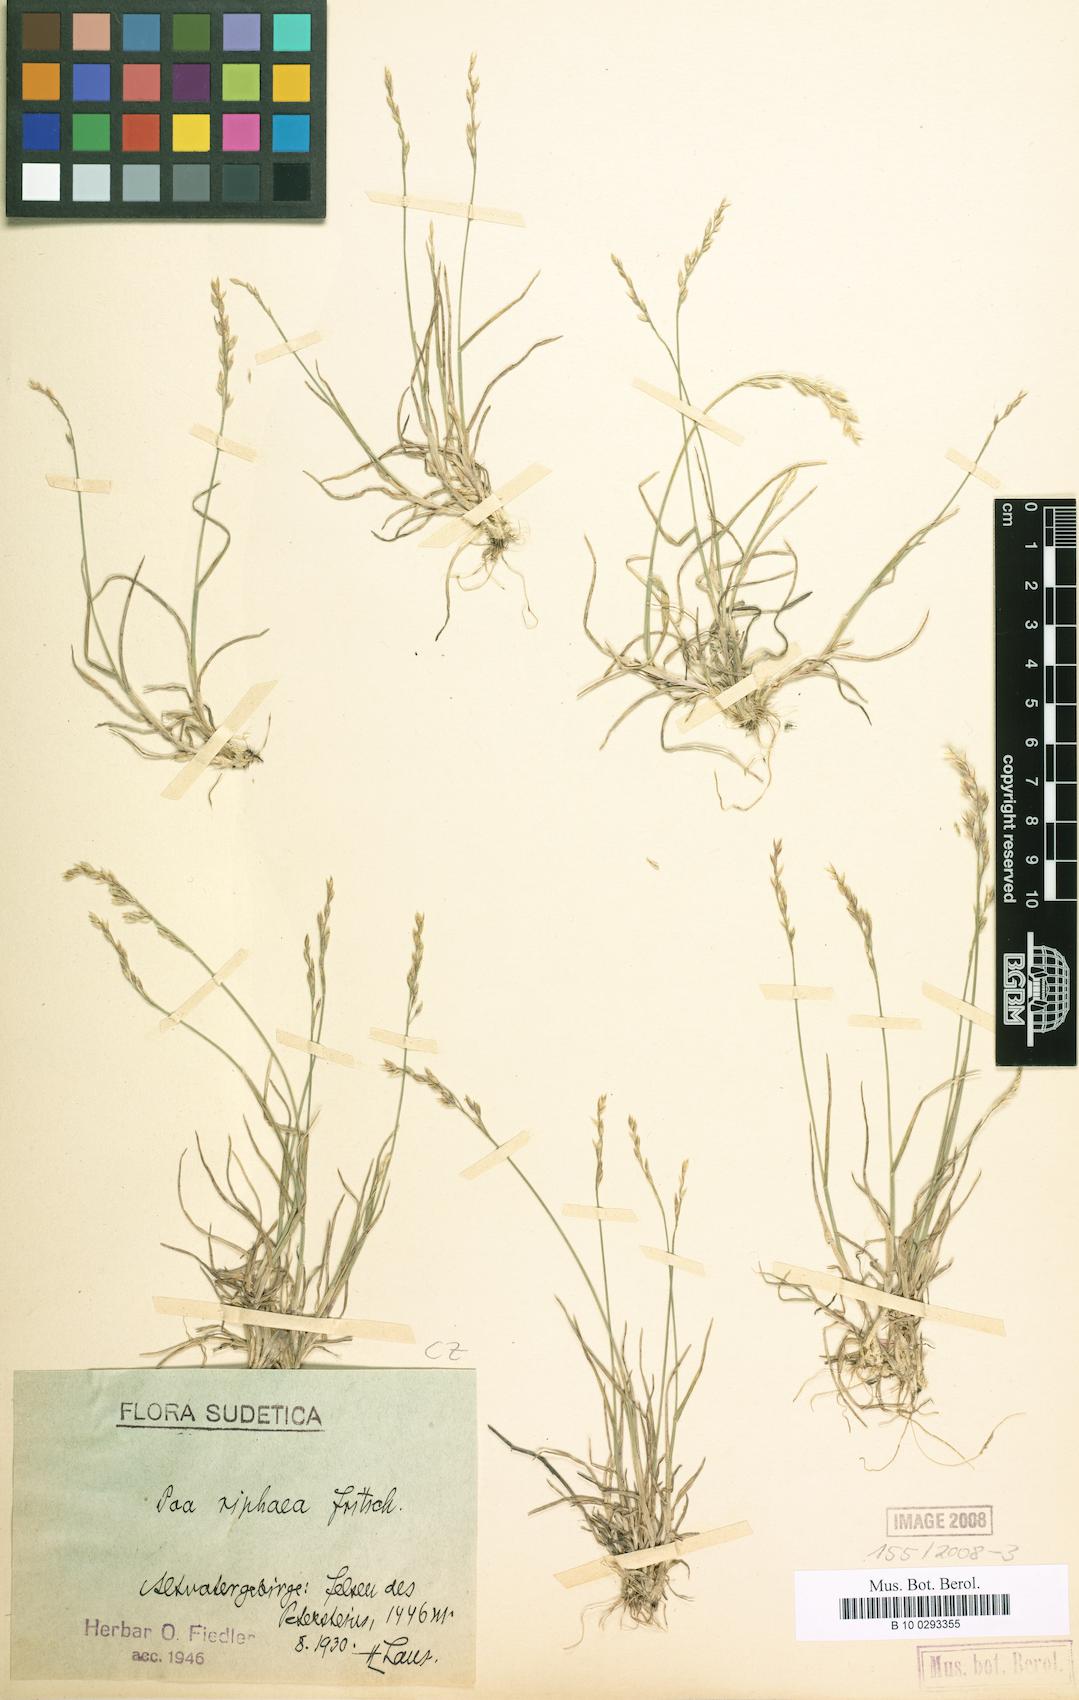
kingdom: Plantae
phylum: Tracheophyta
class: Liliopsida
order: Poales
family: Poaceae
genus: Poa
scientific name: Poa glauca
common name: Glaucous bluegrass
